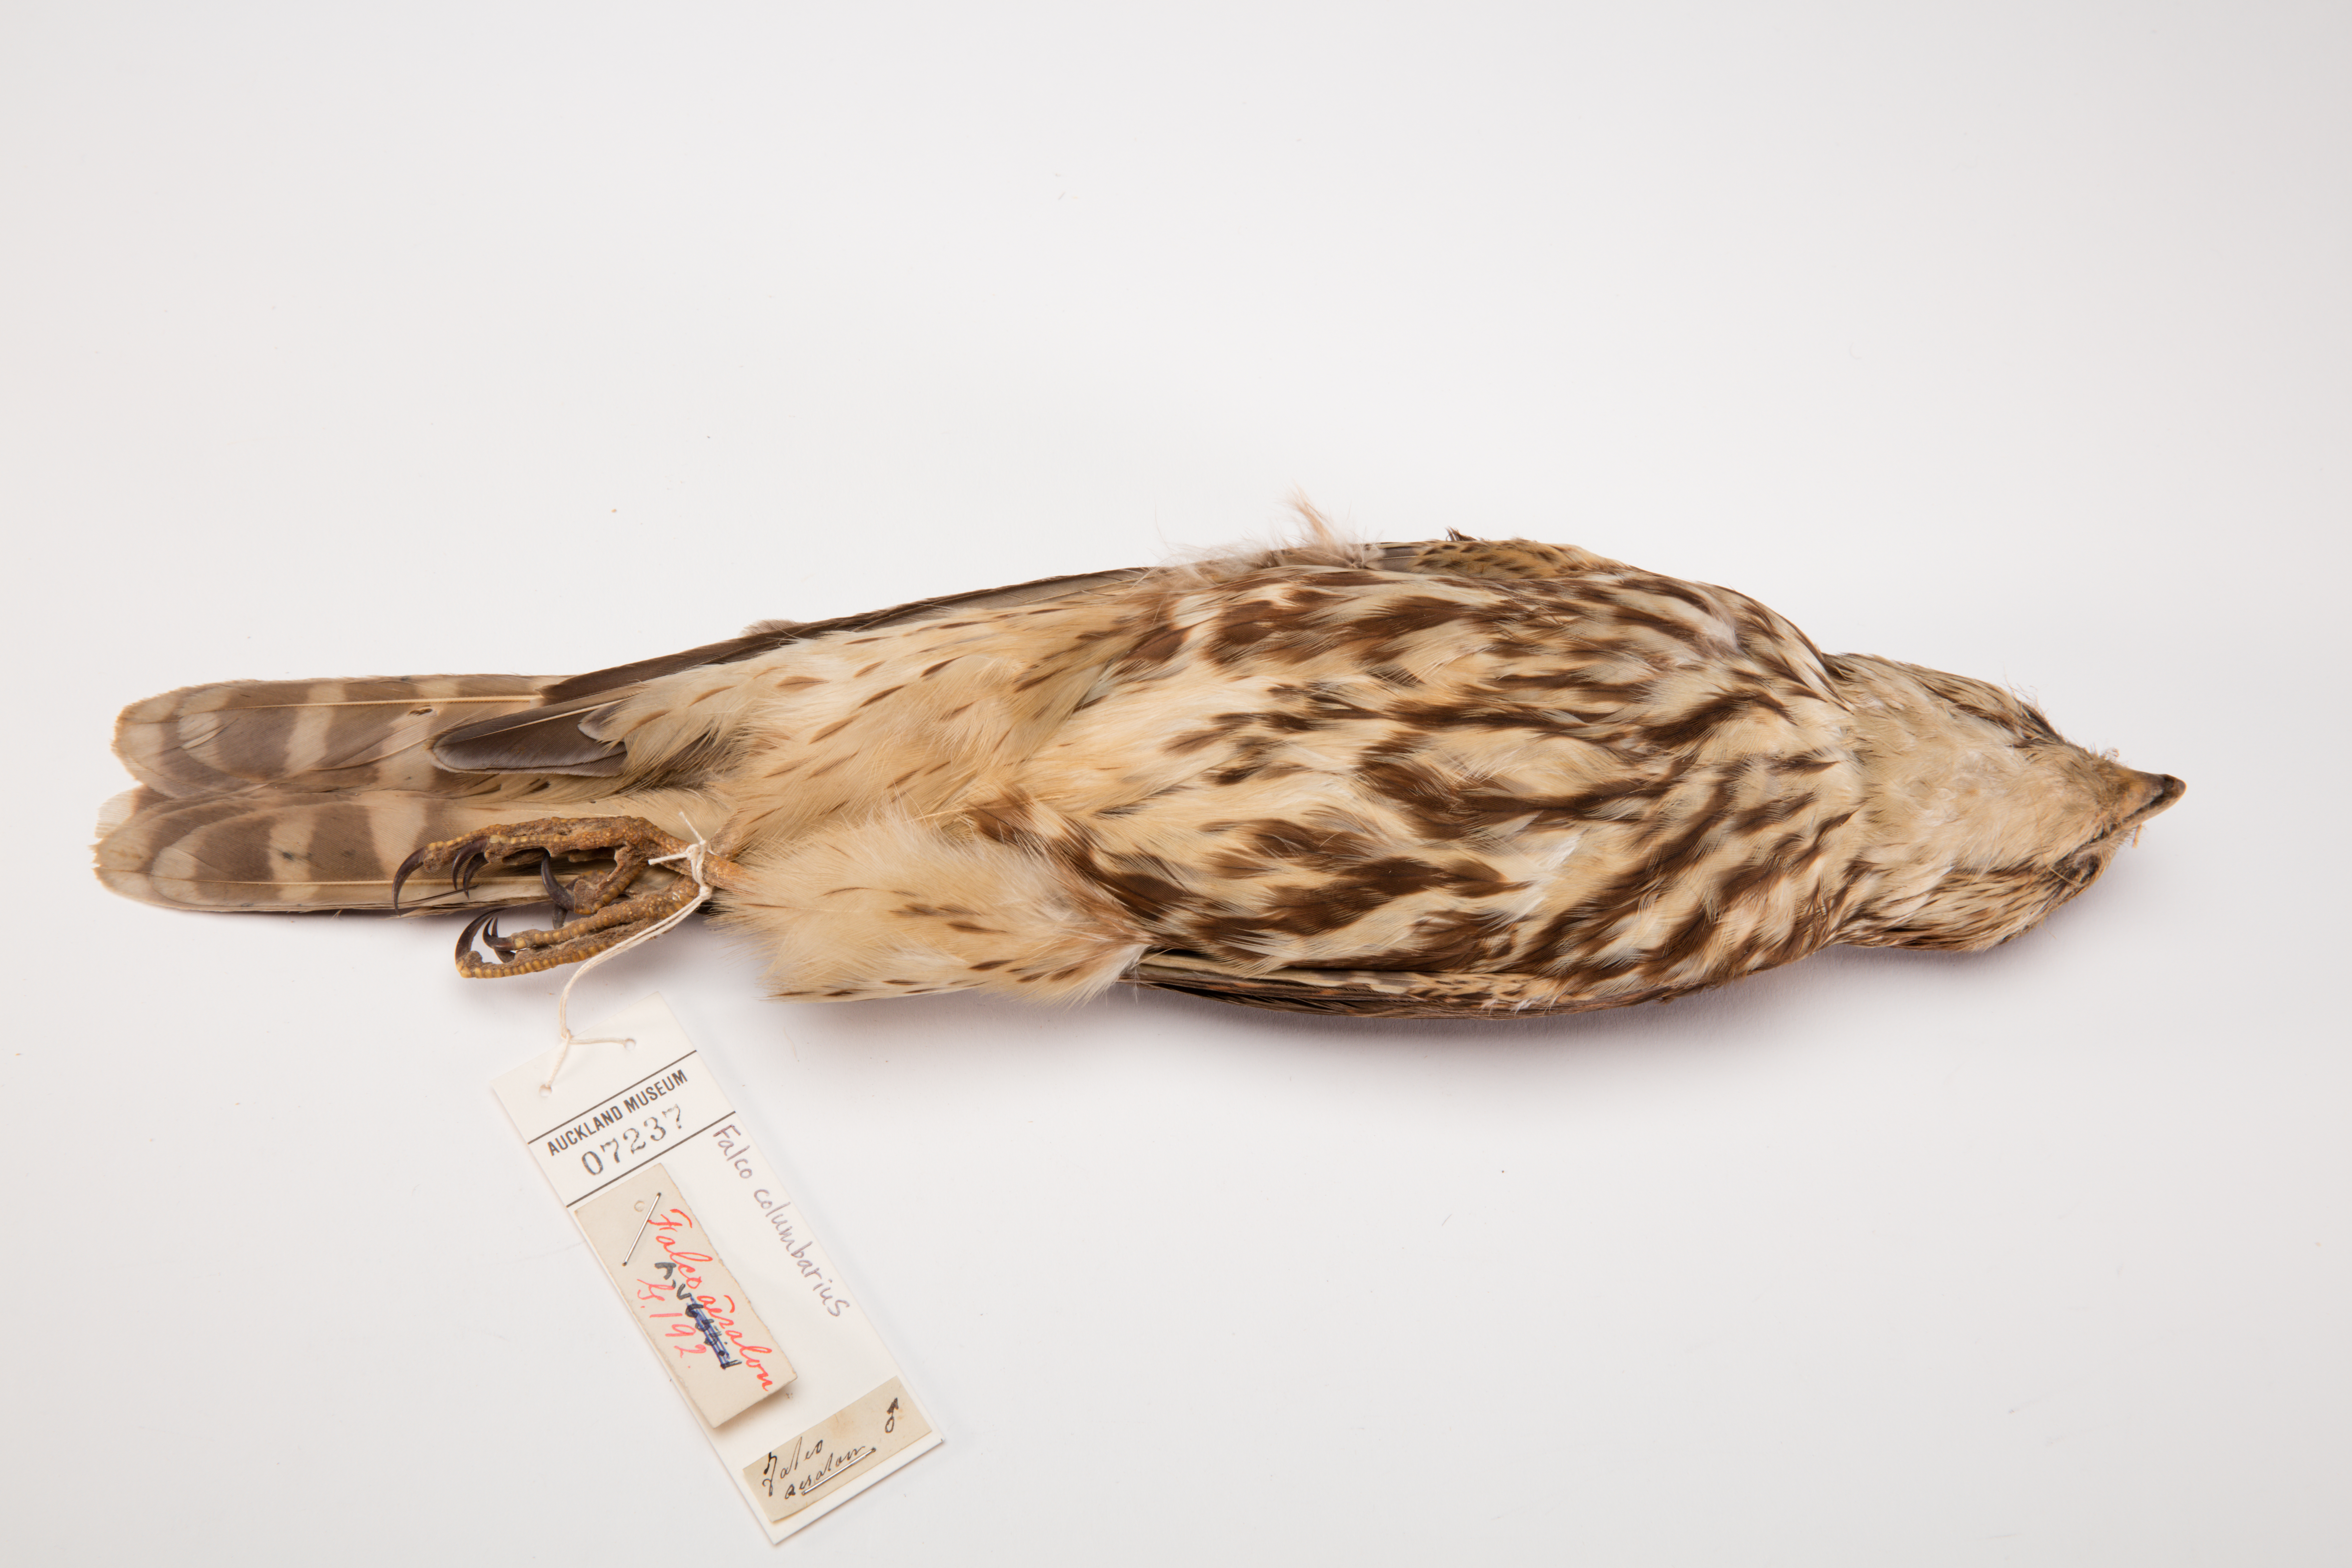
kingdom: Animalia
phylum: Chordata
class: Aves
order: Falconiformes
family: Falconidae
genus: Falco
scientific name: Falco columbarius
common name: Merlin
